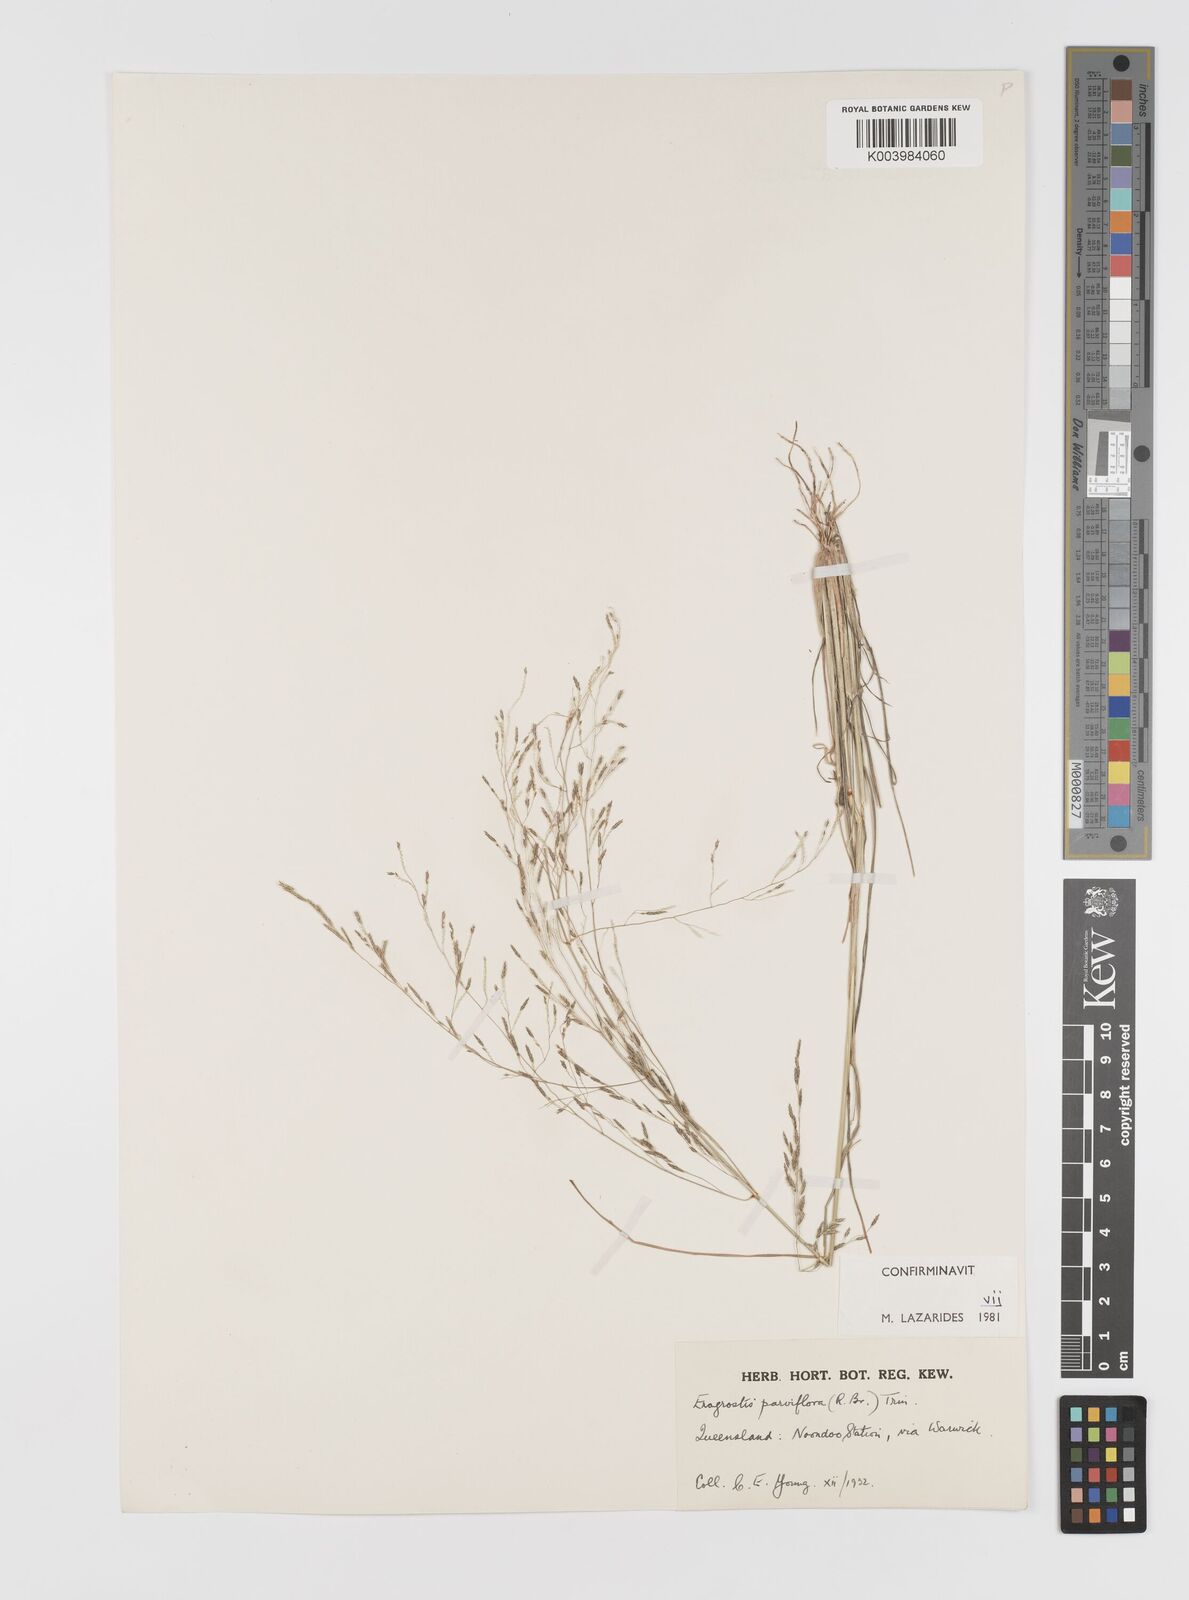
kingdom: Plantae
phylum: Tracheophyta
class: Liliopsida
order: Poales
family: Poaceae
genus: Eragrostis
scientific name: Eragrostis parviflora
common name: Weeping love-grass
